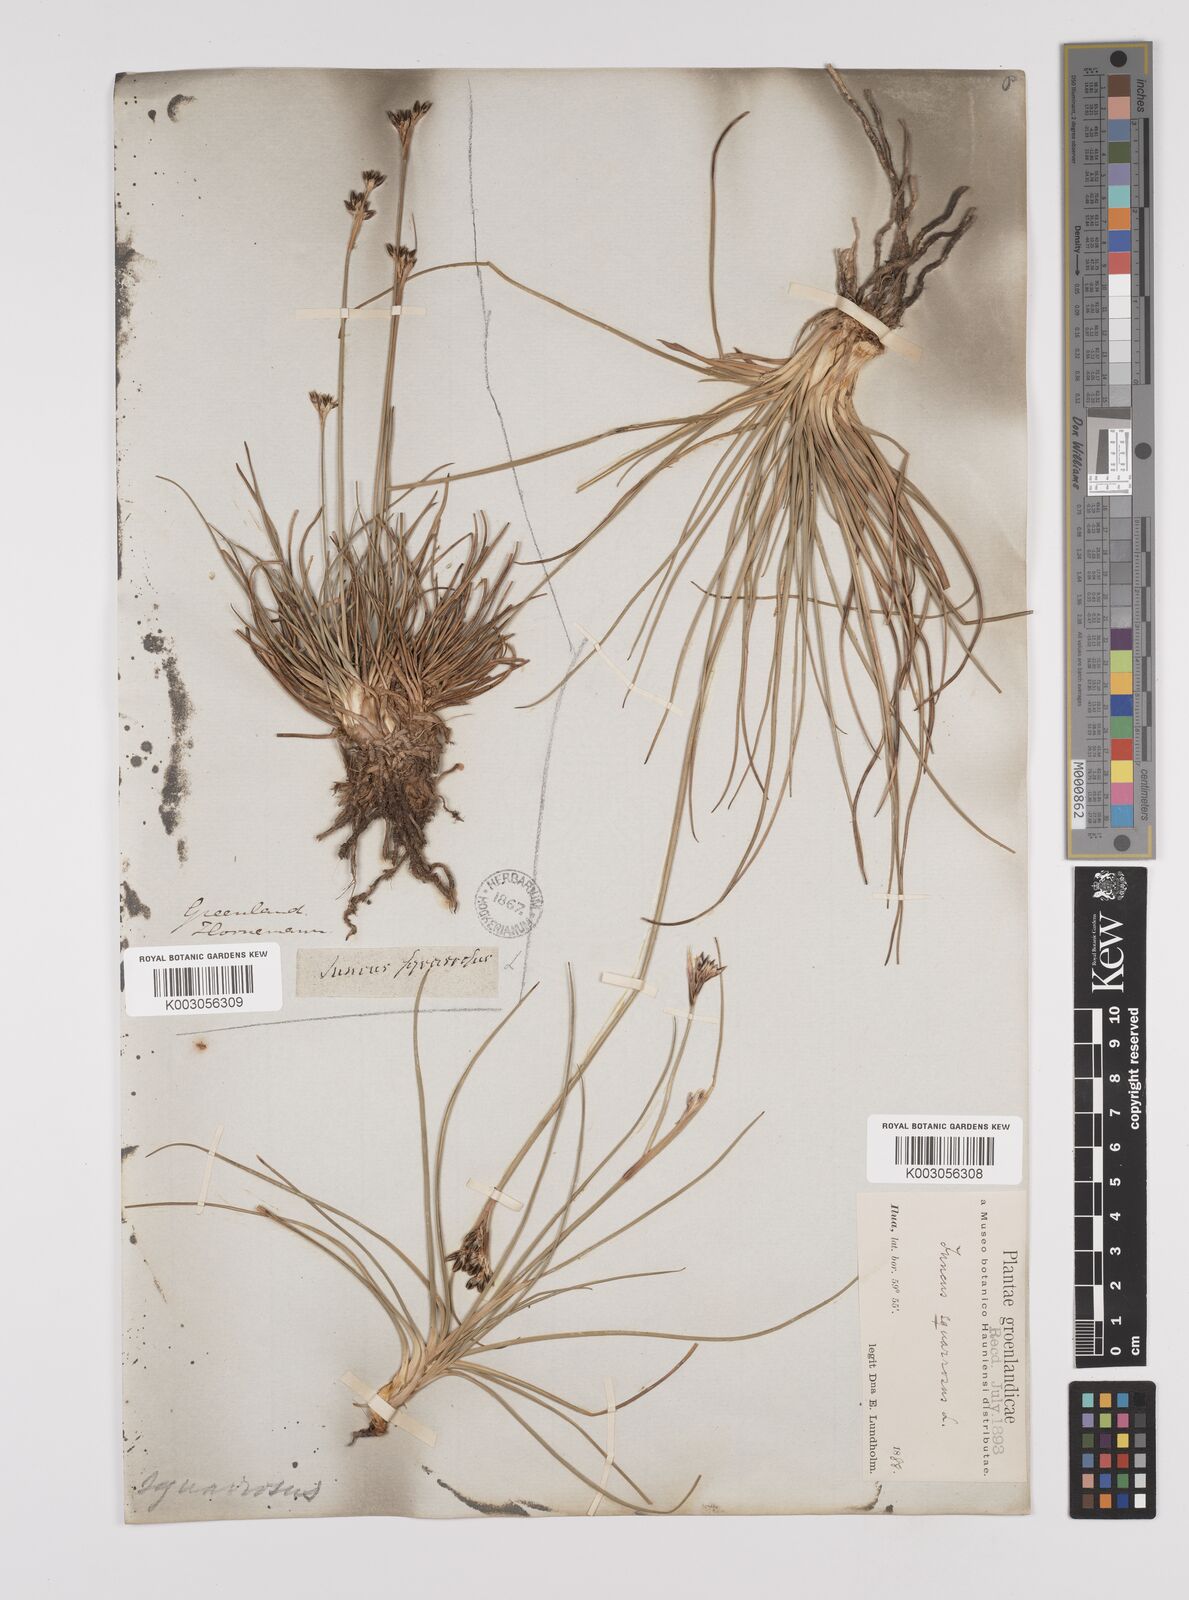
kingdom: Plantae
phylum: Tracheophyta
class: Liliopsida
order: Poales
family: Juncaceae
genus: Juncus
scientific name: Juncus squarrosus
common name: Heath rush
